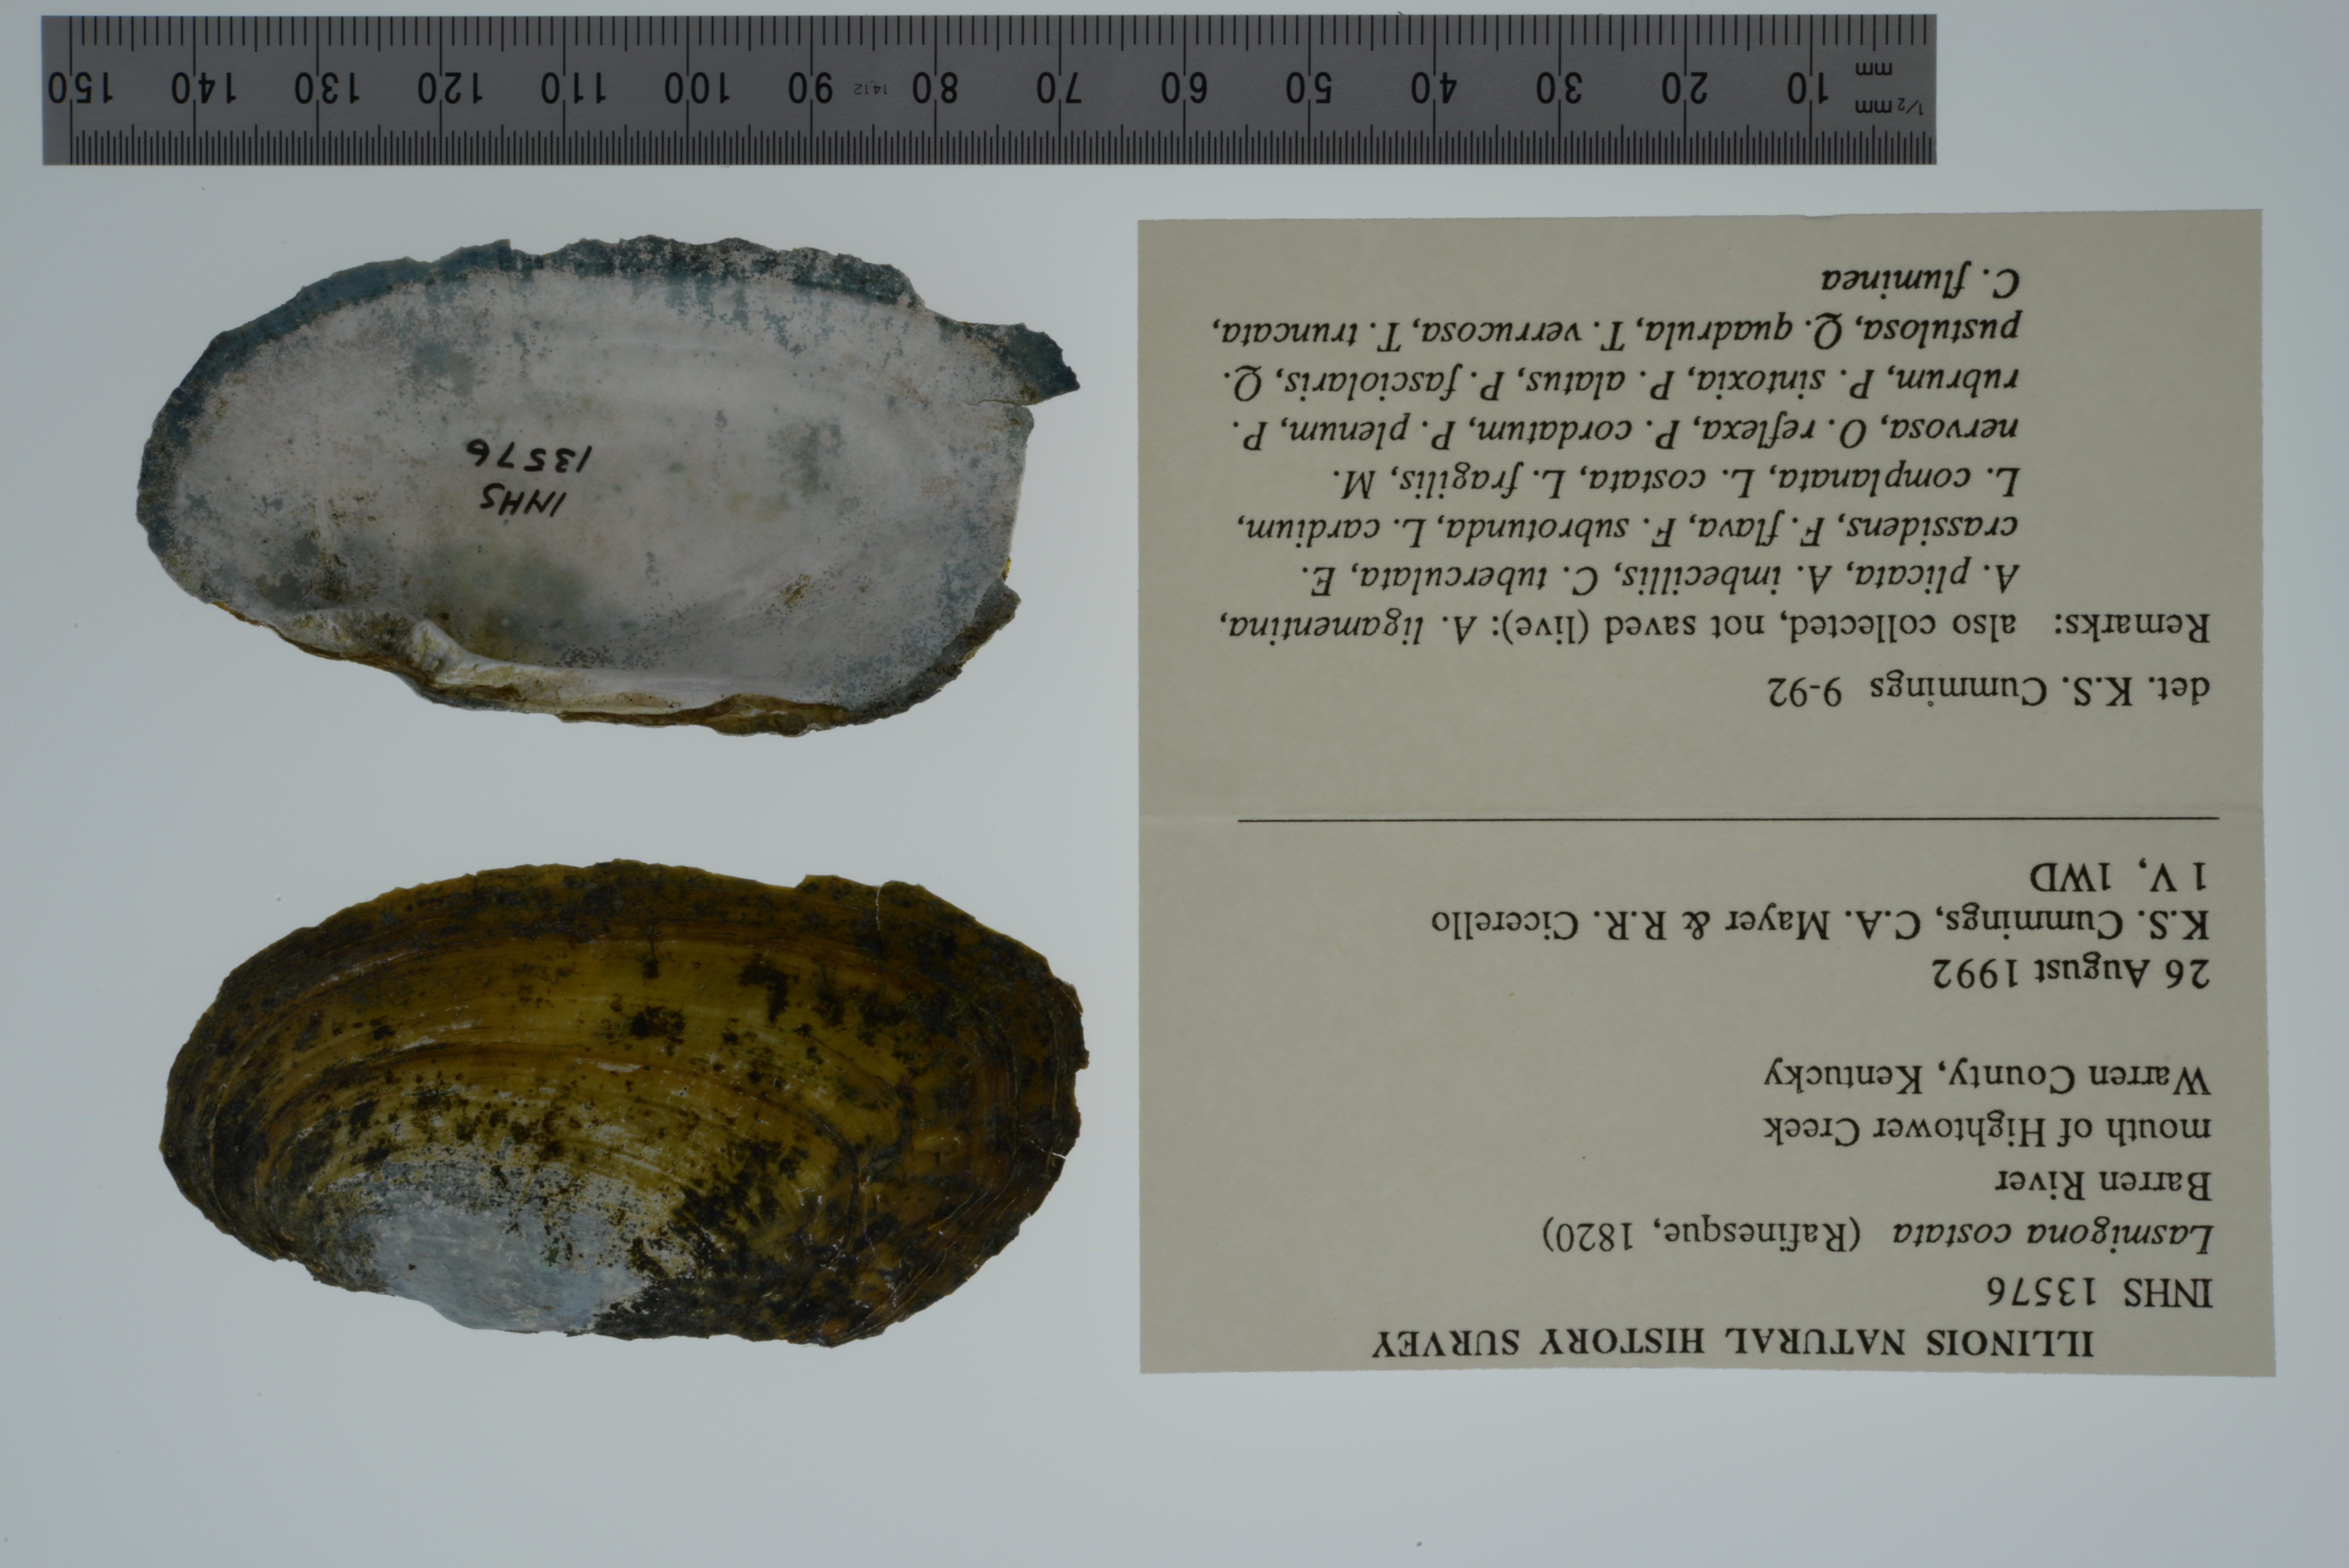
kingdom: Animalia
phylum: Mollusca
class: Bivalvia
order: Unionida
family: Unionidae
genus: Lasmigona
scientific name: Lasmigona costata
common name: Flutedshell
